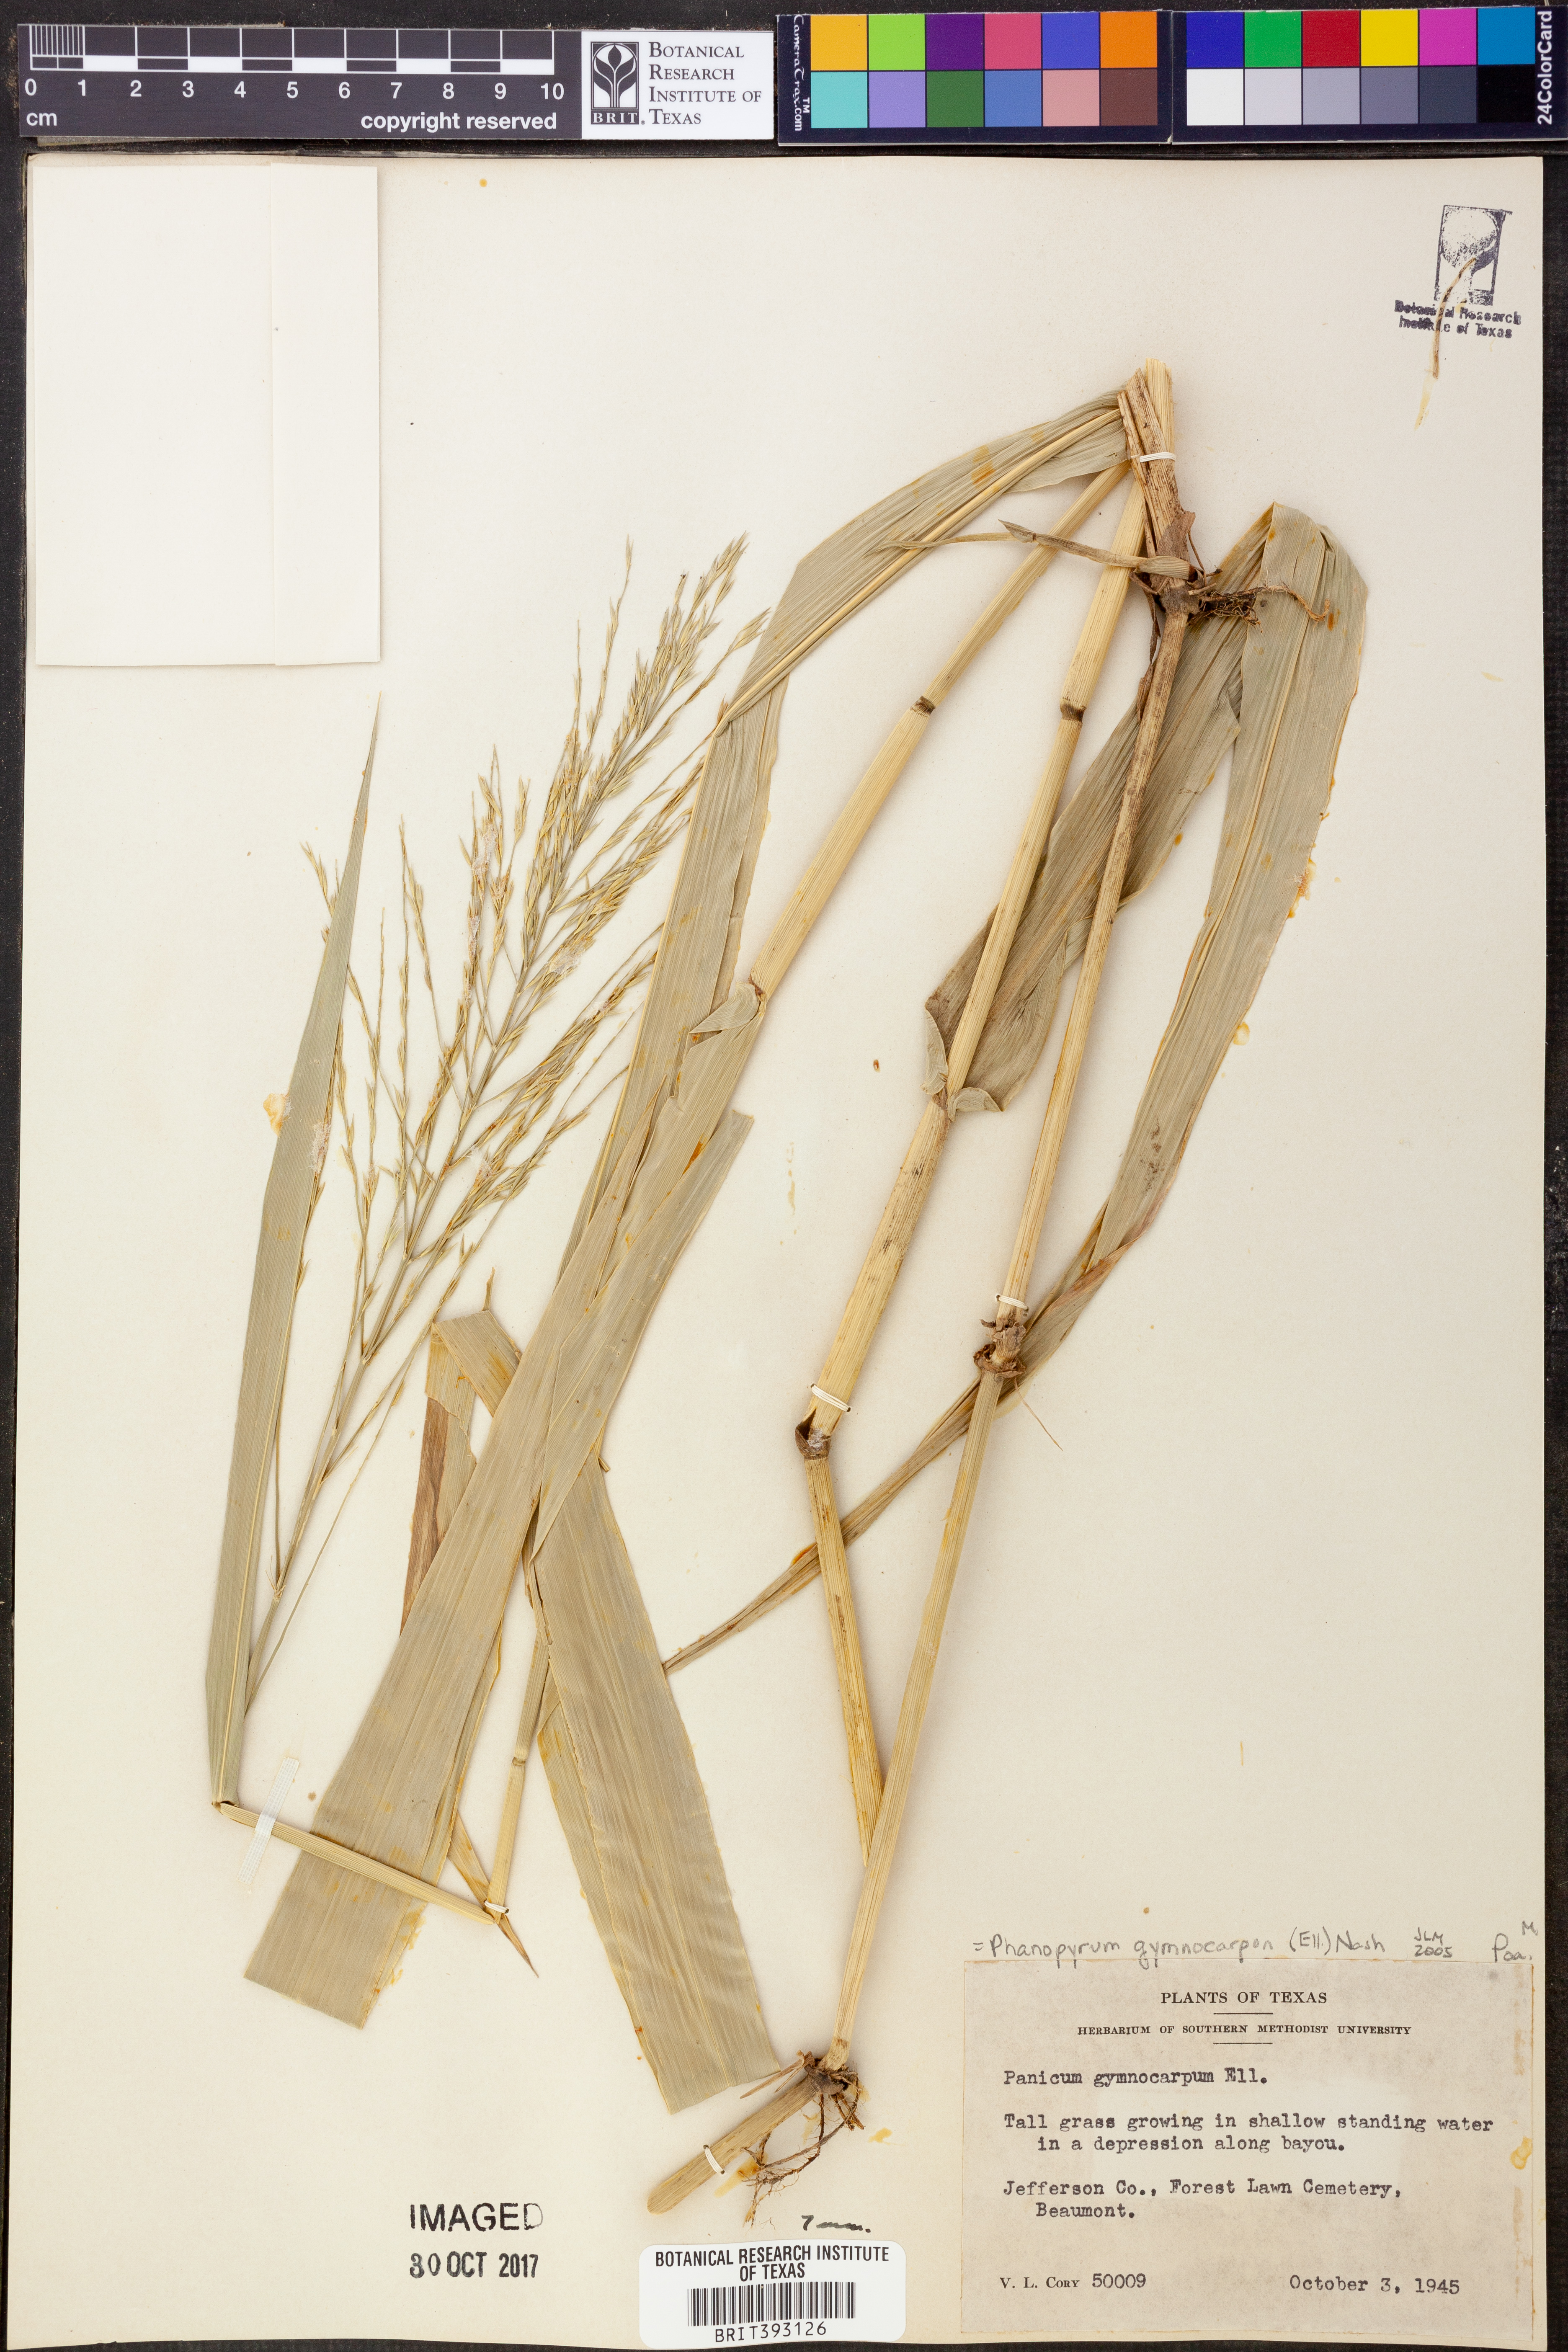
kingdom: Plantae
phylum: Tracheophyta
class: Liliopsida
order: Poales
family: Poaceae
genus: Panicum
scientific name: Panicum gymnocarpon
